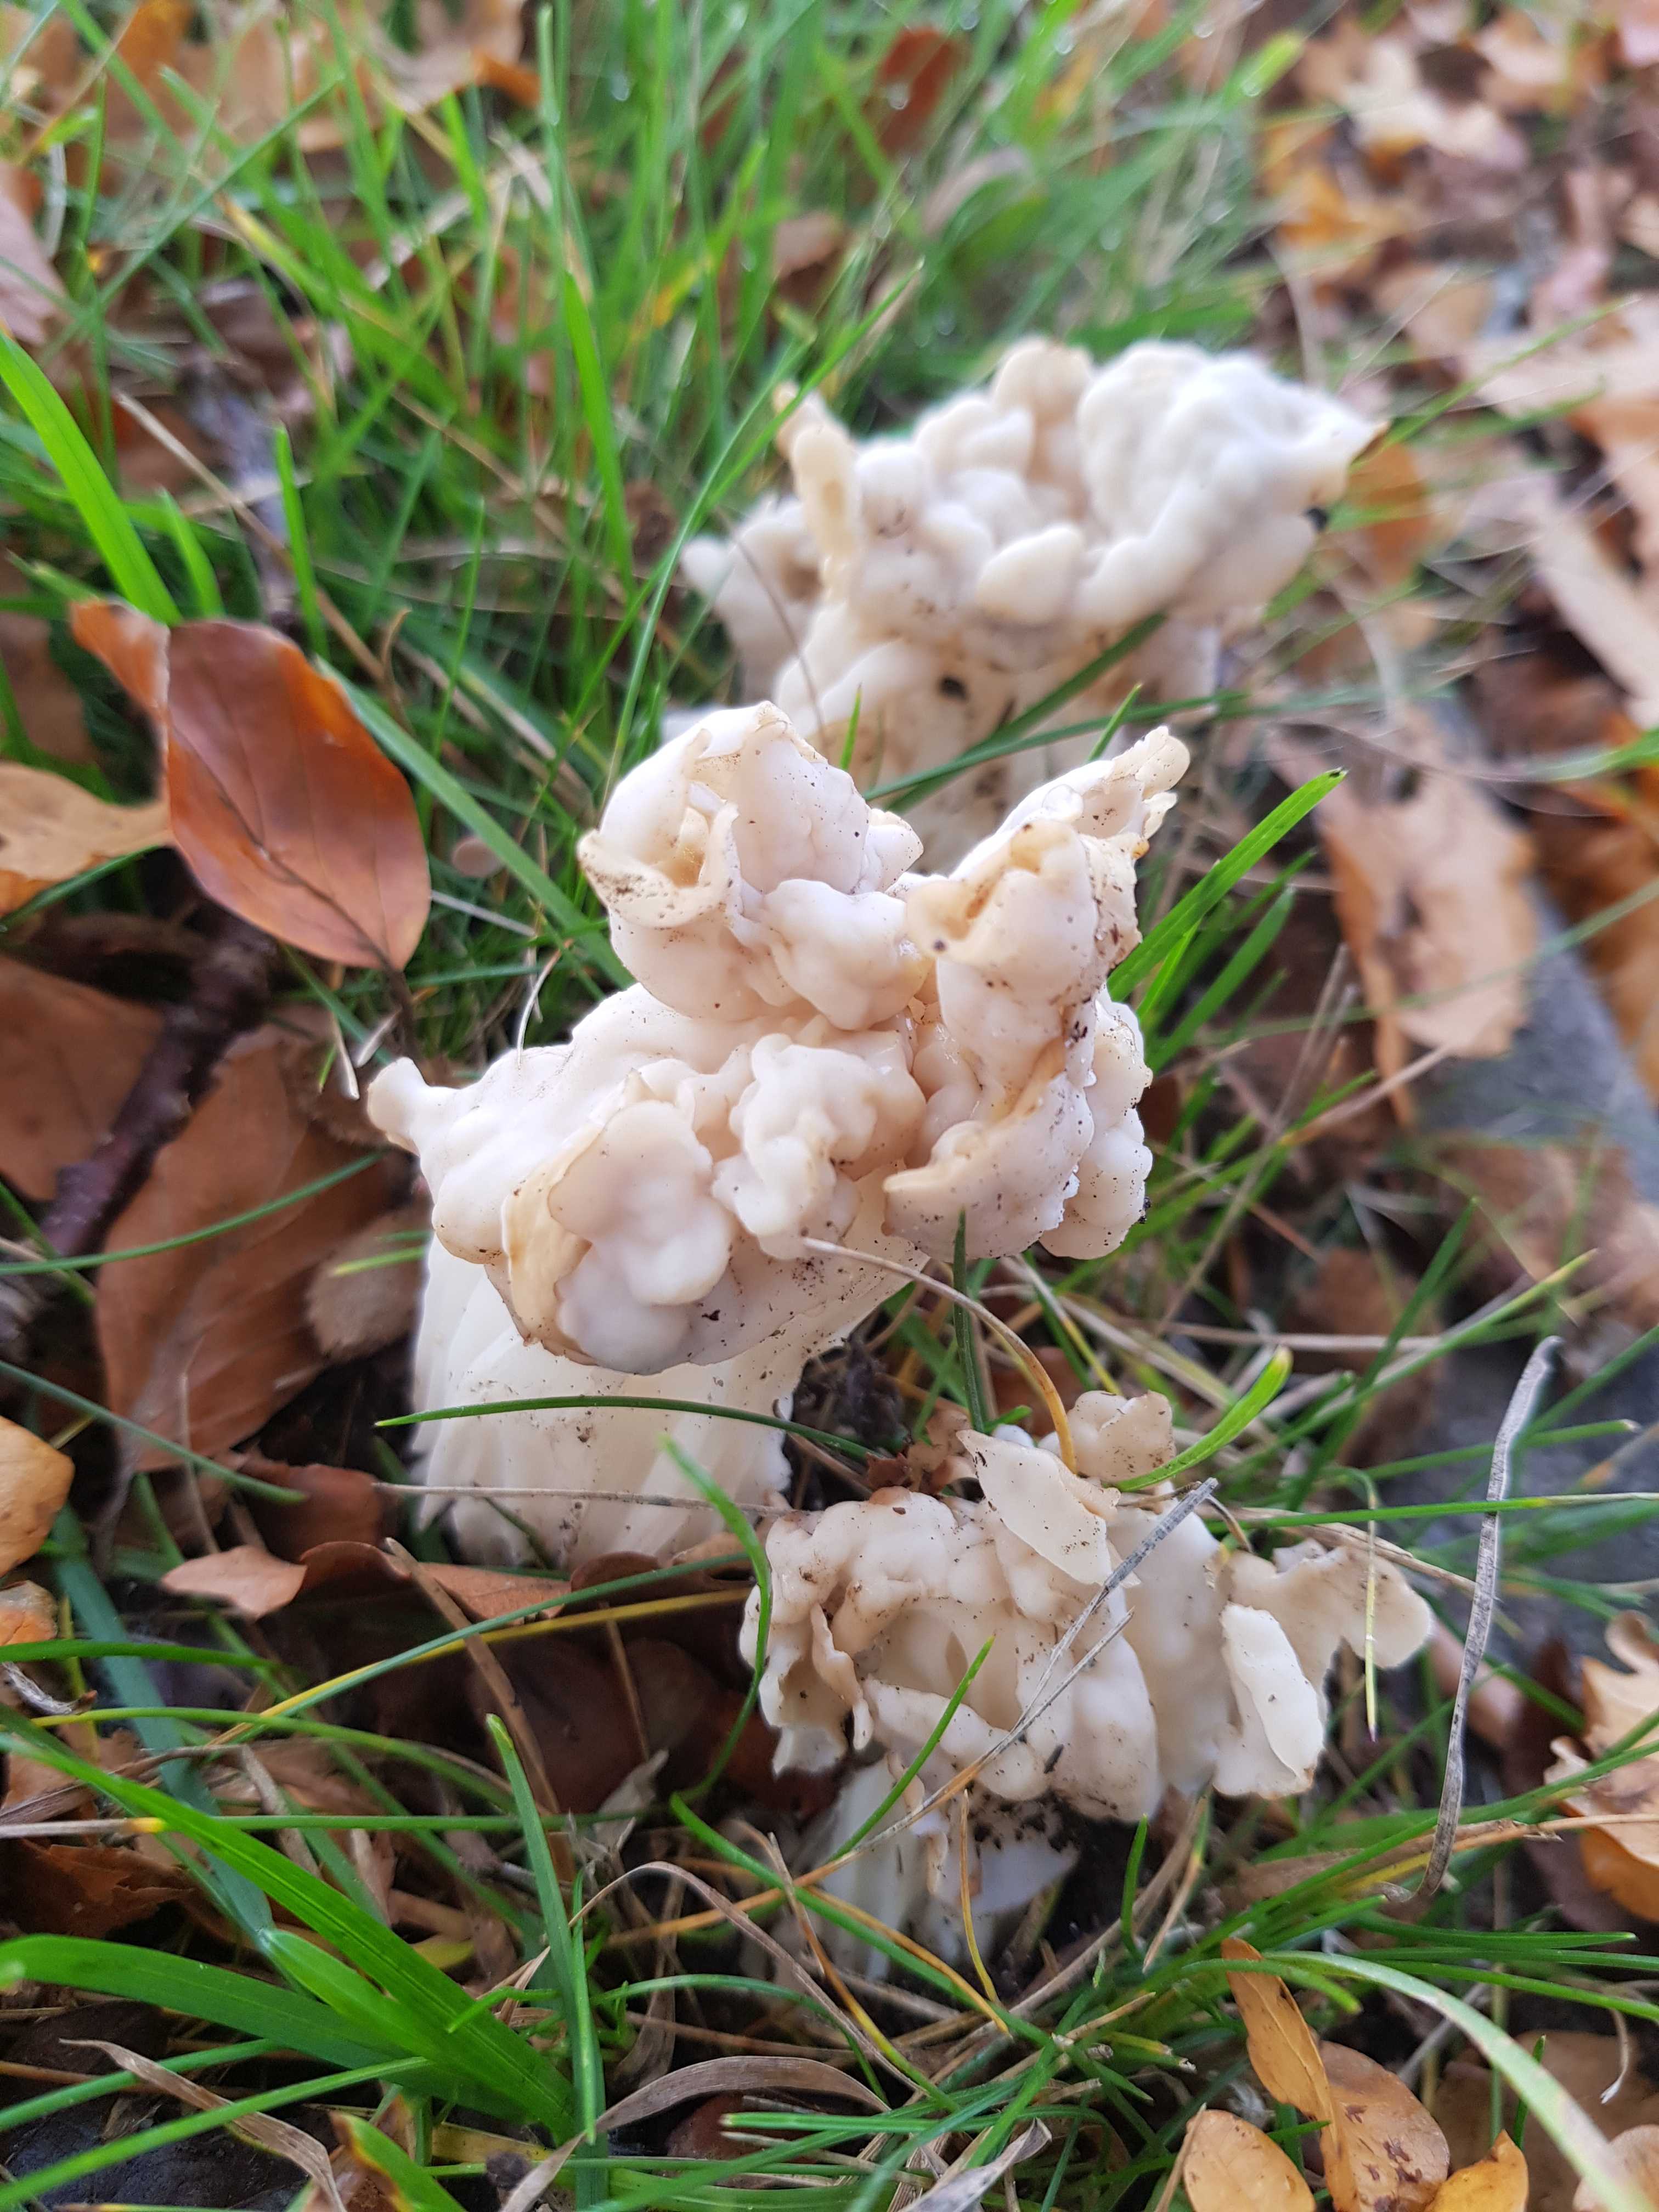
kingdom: Fungi
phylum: Ascomycota
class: Pezizomycetes
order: Pezizales
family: Helvellaceae
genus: Helvella
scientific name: Helvella crispa
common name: kruset foldhat
